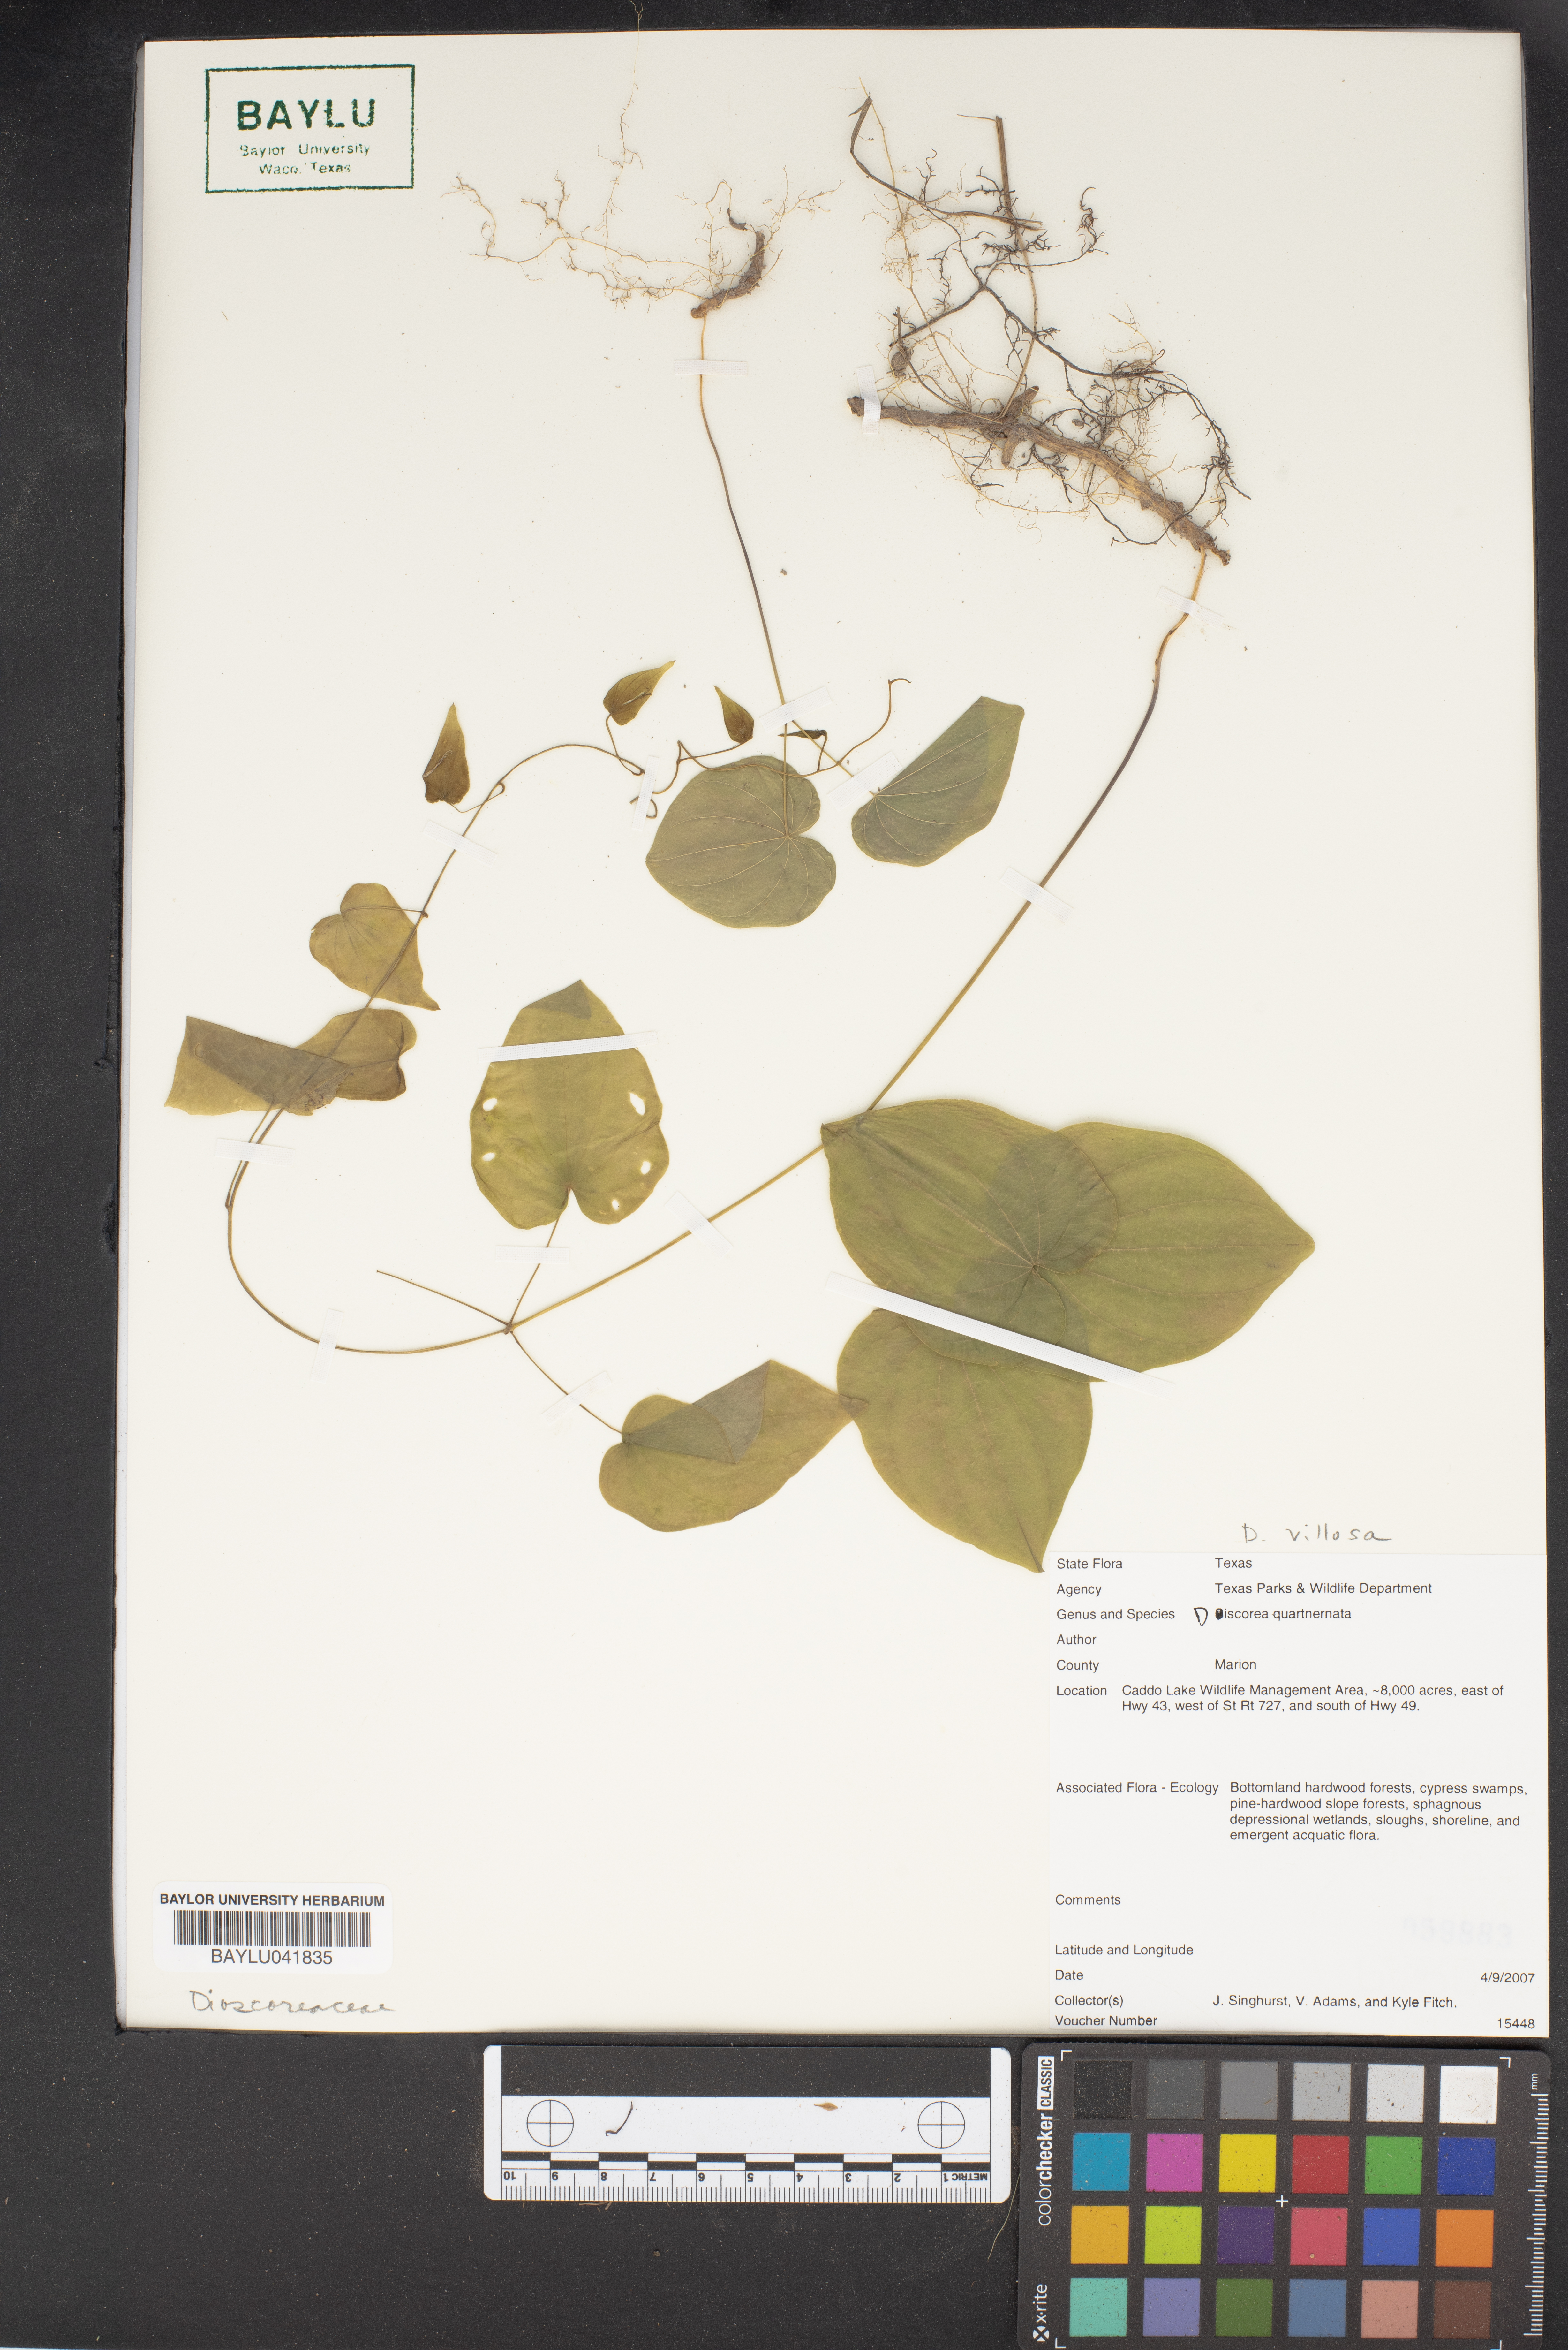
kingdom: Plantae
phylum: Tracheophyta
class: Liliopsida
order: Dioscoreales
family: Dioscoreaceae
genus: Dioscorea
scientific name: Dioscorea villosa
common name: Wild yam
